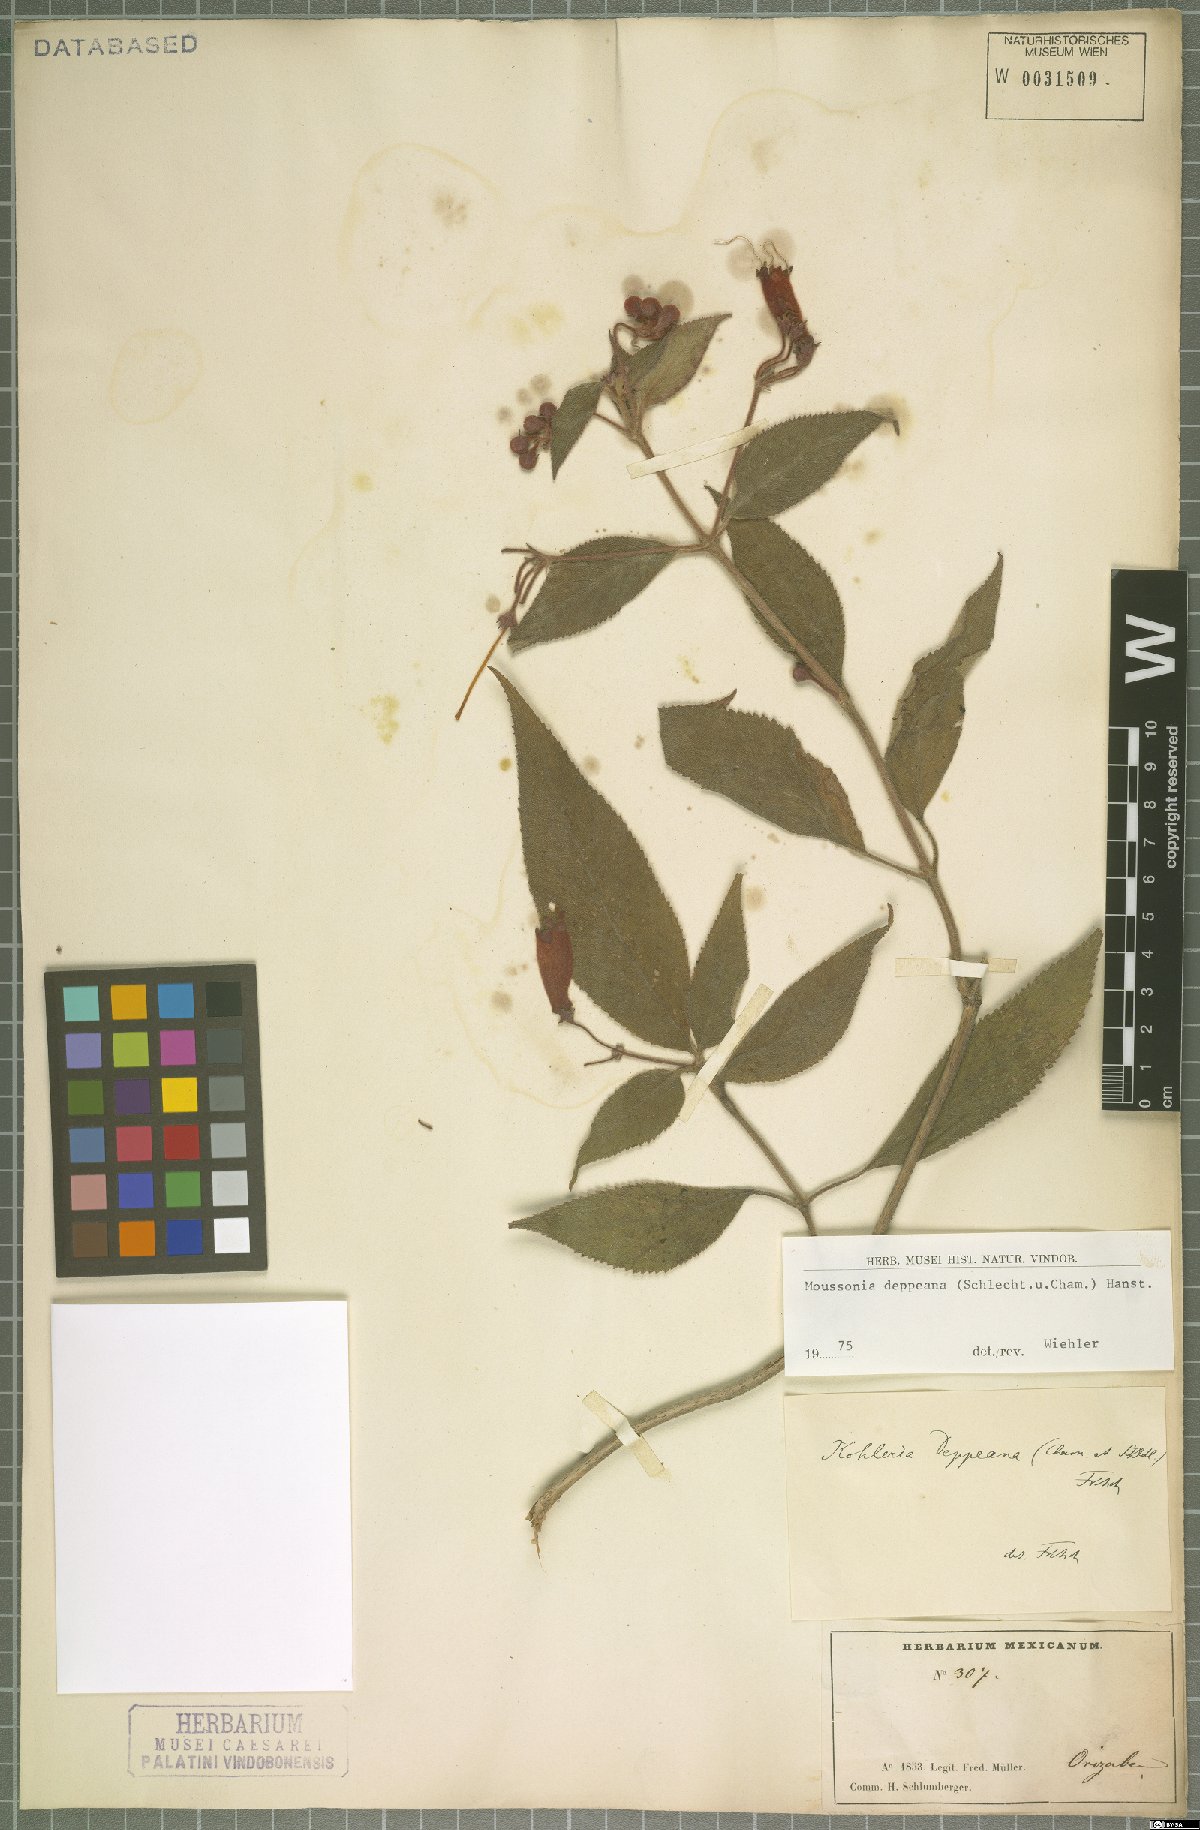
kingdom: Plantae
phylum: Tracheophyta
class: Magnoliopsida
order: Lamiales
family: Gesneriaceae
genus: Moussonia
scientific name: Moussonia deppeana
